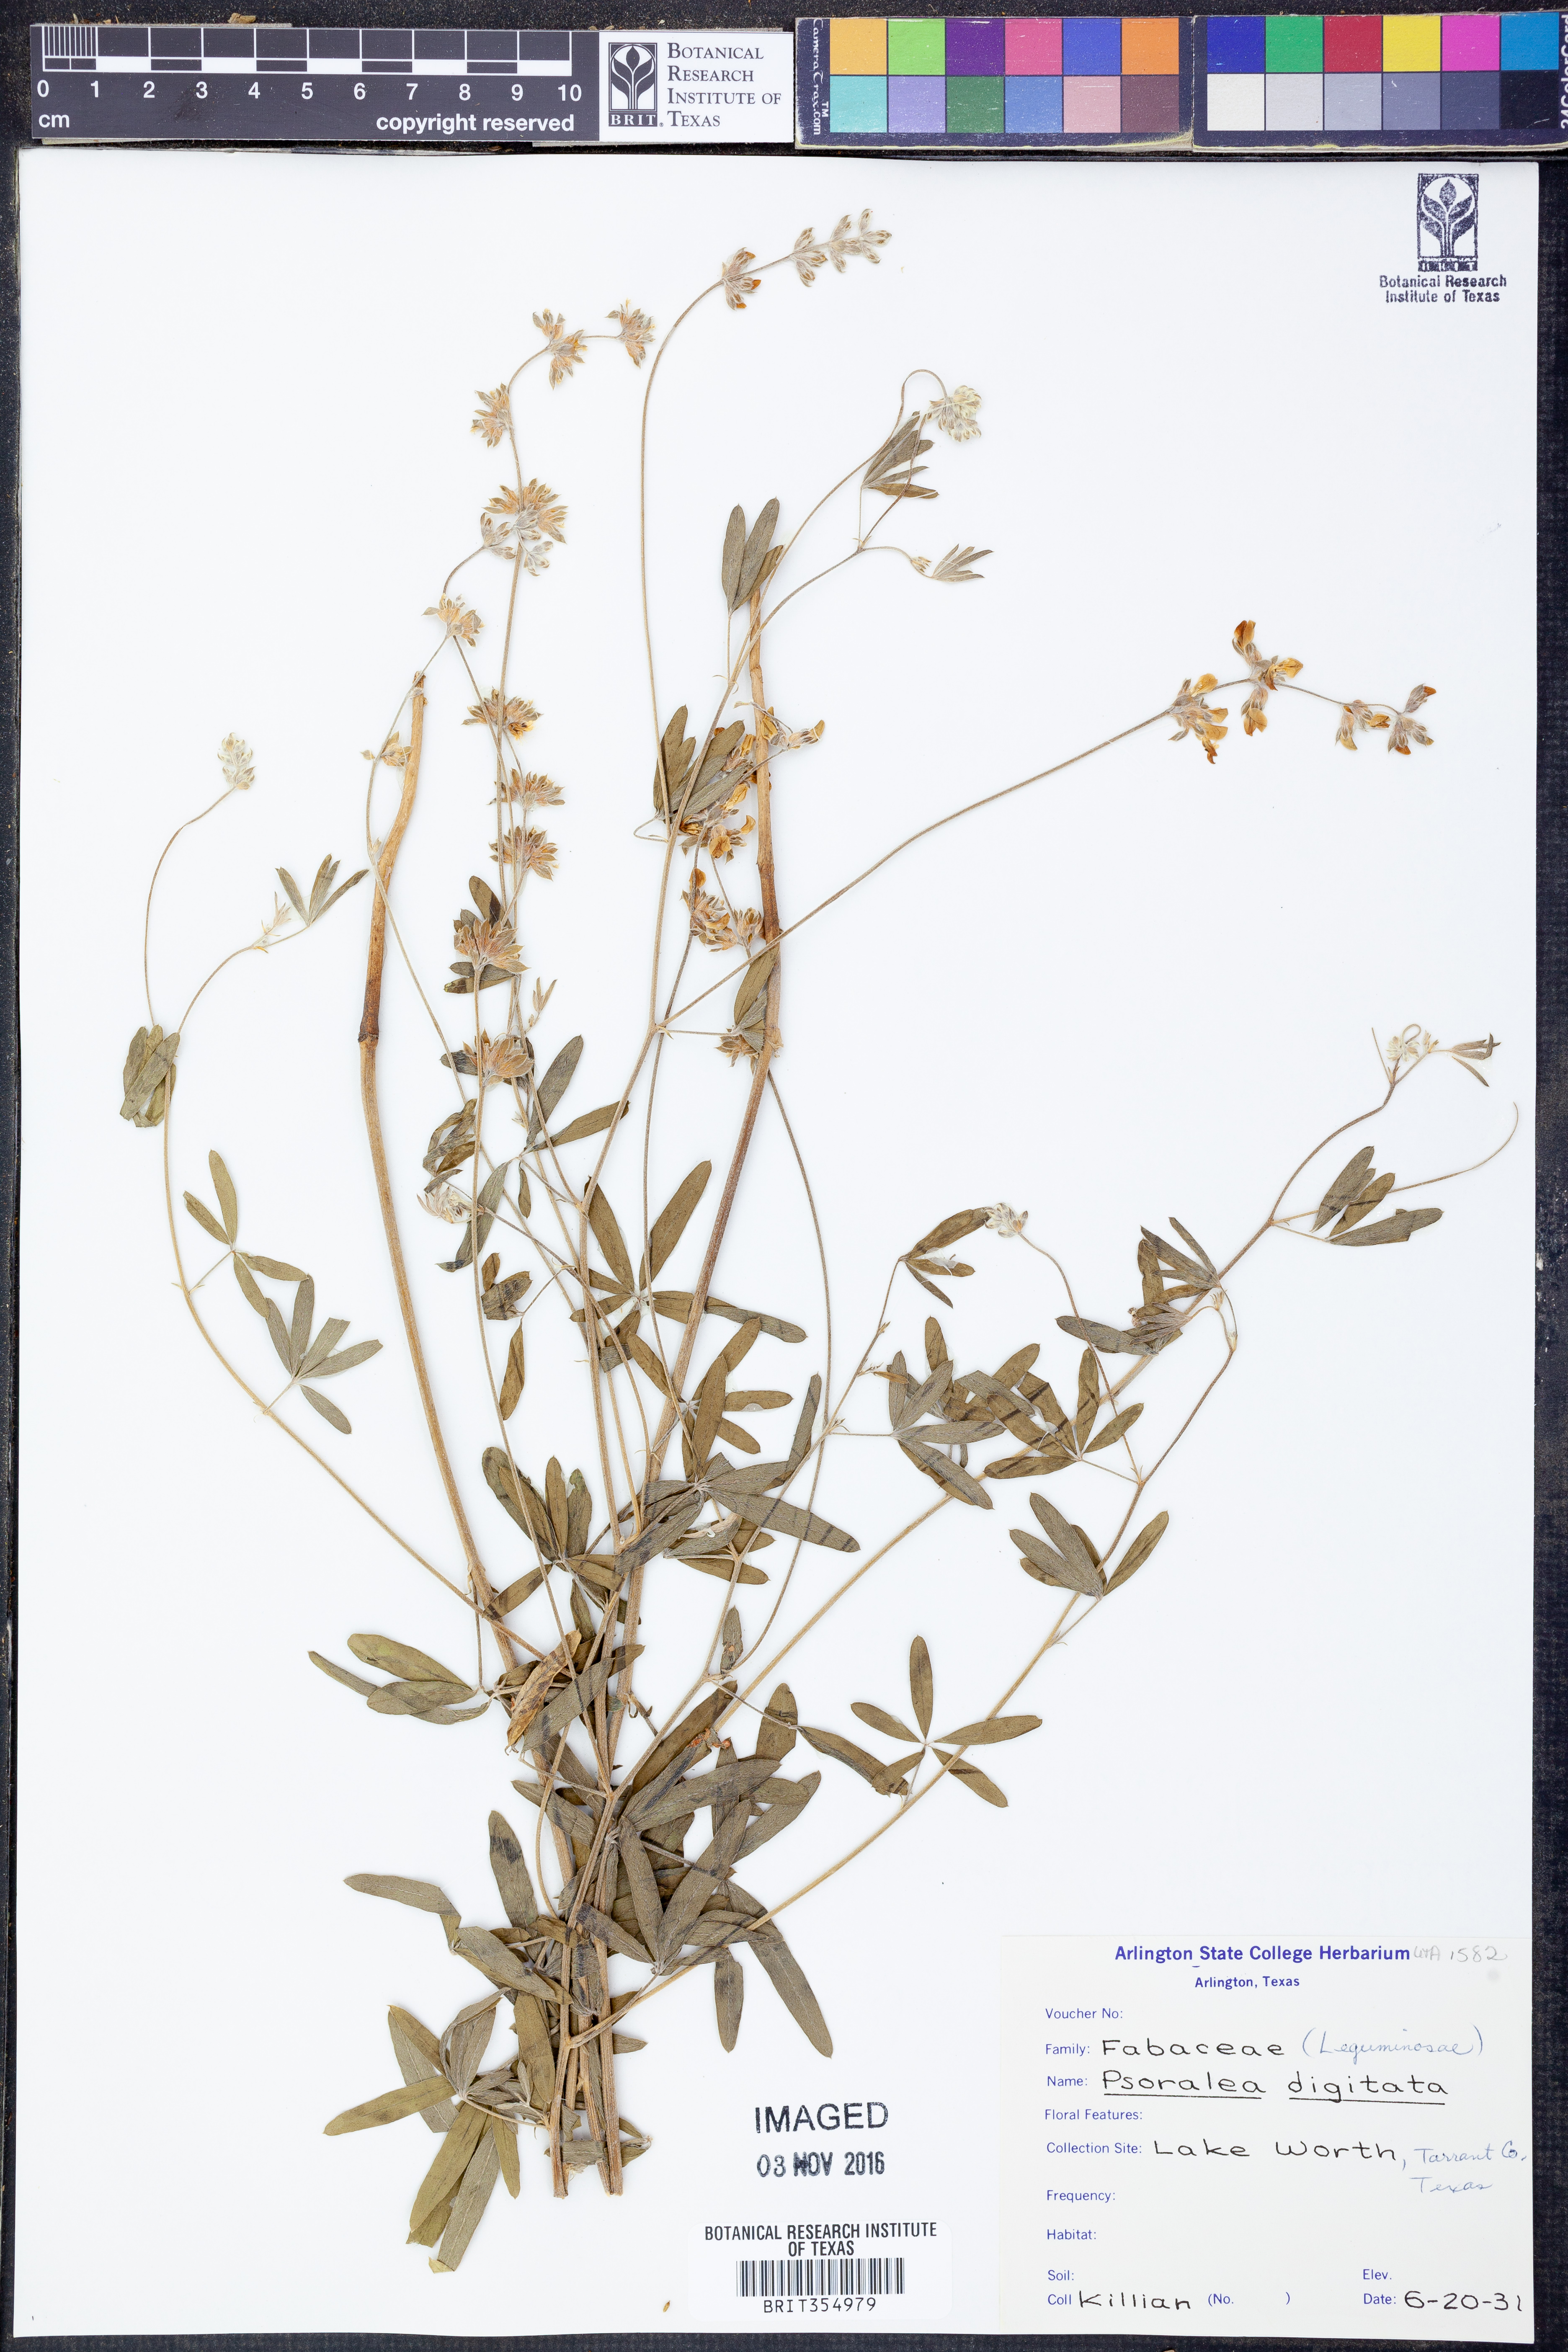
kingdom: Plantae
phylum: Tracheophyta
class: Magnoliopsida
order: Fabales
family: Fabaceae
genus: Pediomelum
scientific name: Pediomelum digitatum
